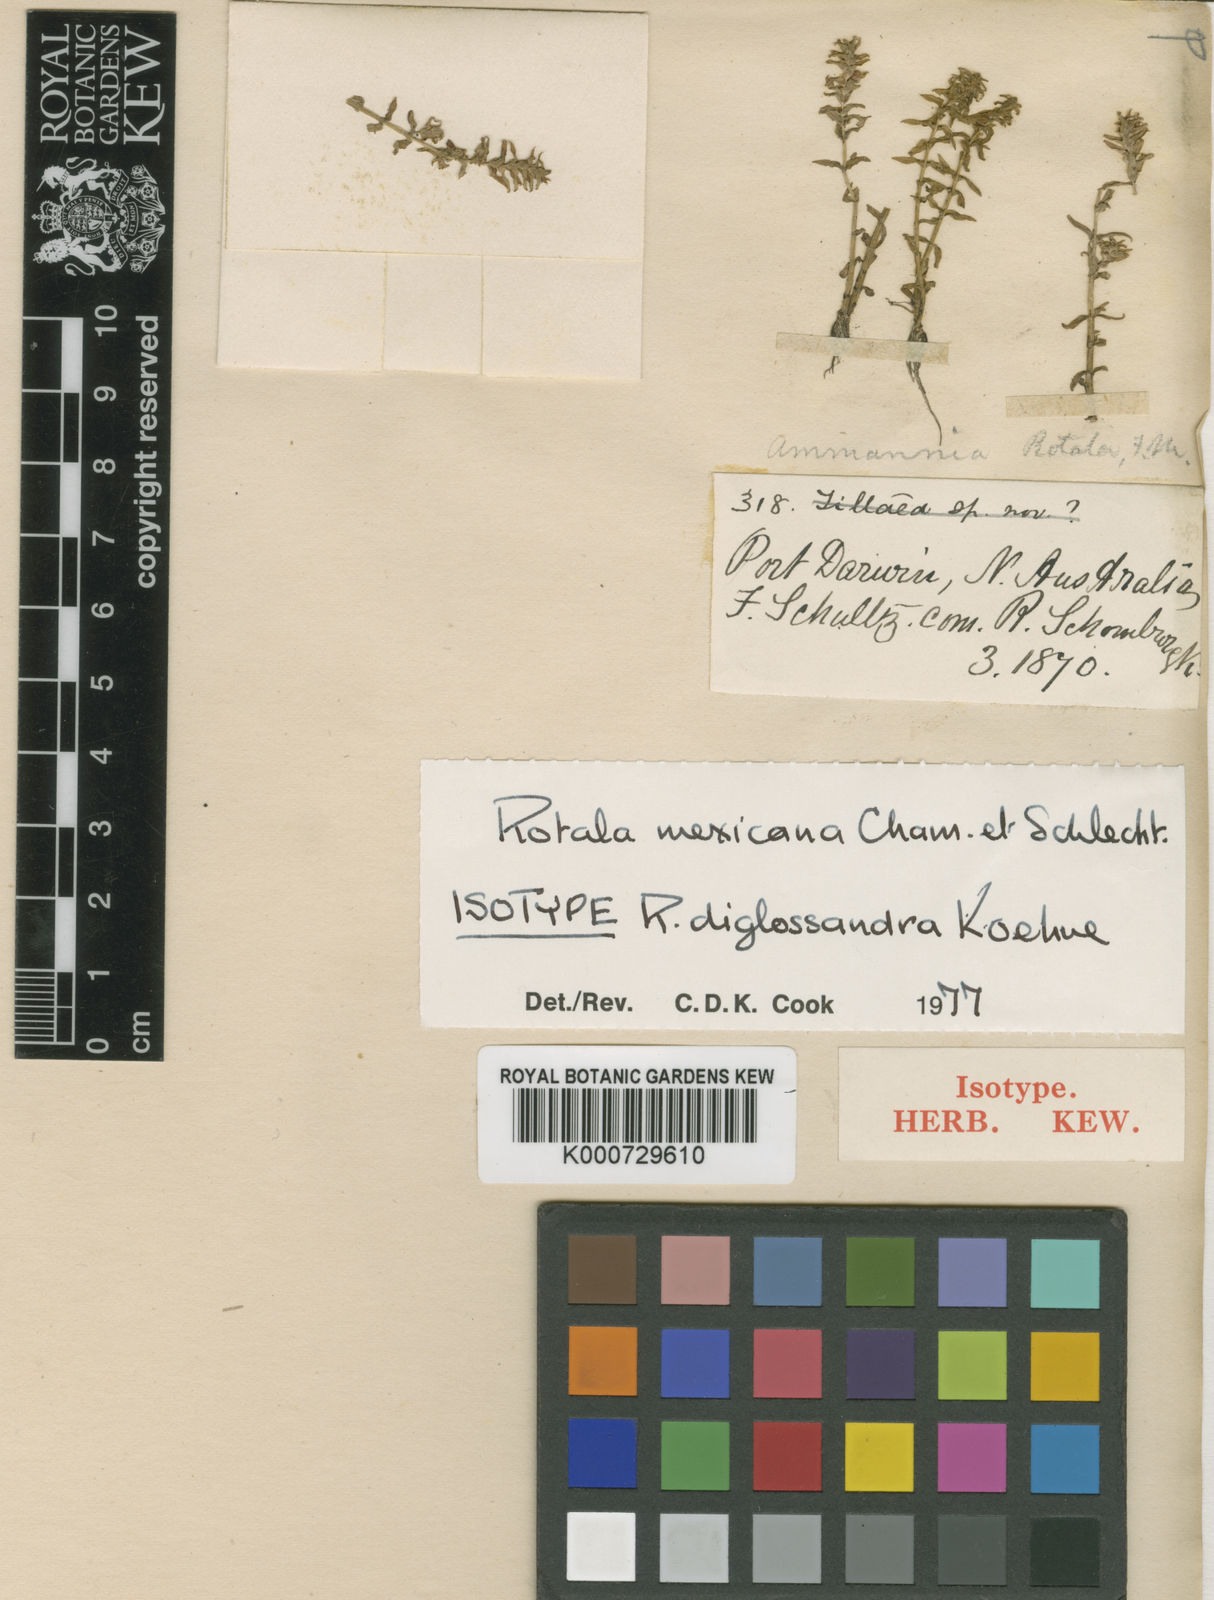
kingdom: Plantae
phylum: Tracheophyta
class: Magnoliopsida
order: Myrtales
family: Lythraceae
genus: Rotala
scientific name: Rotala mexicana
